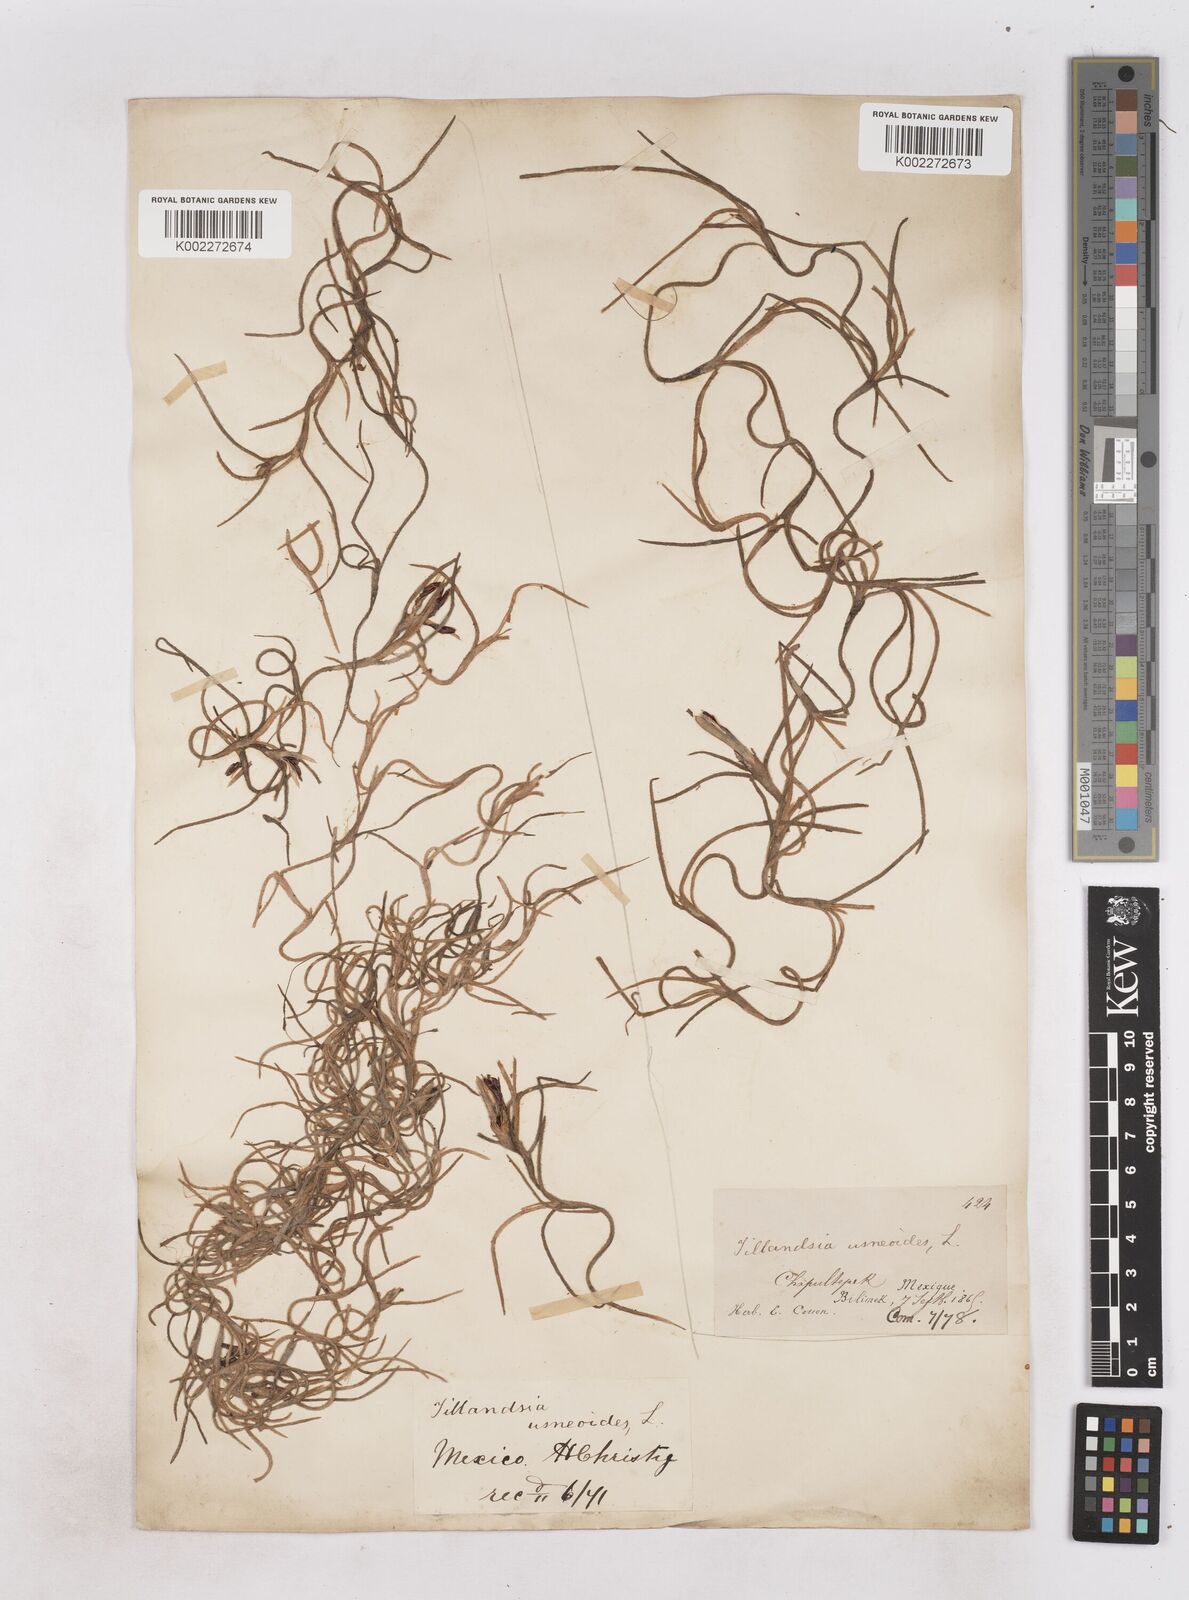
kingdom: Plantae
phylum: Tracheophyta
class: Liliopsida
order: Poales
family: Bromeliaceae
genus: Tillandsia
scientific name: Tillandsia usneoides
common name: Spanish moss
